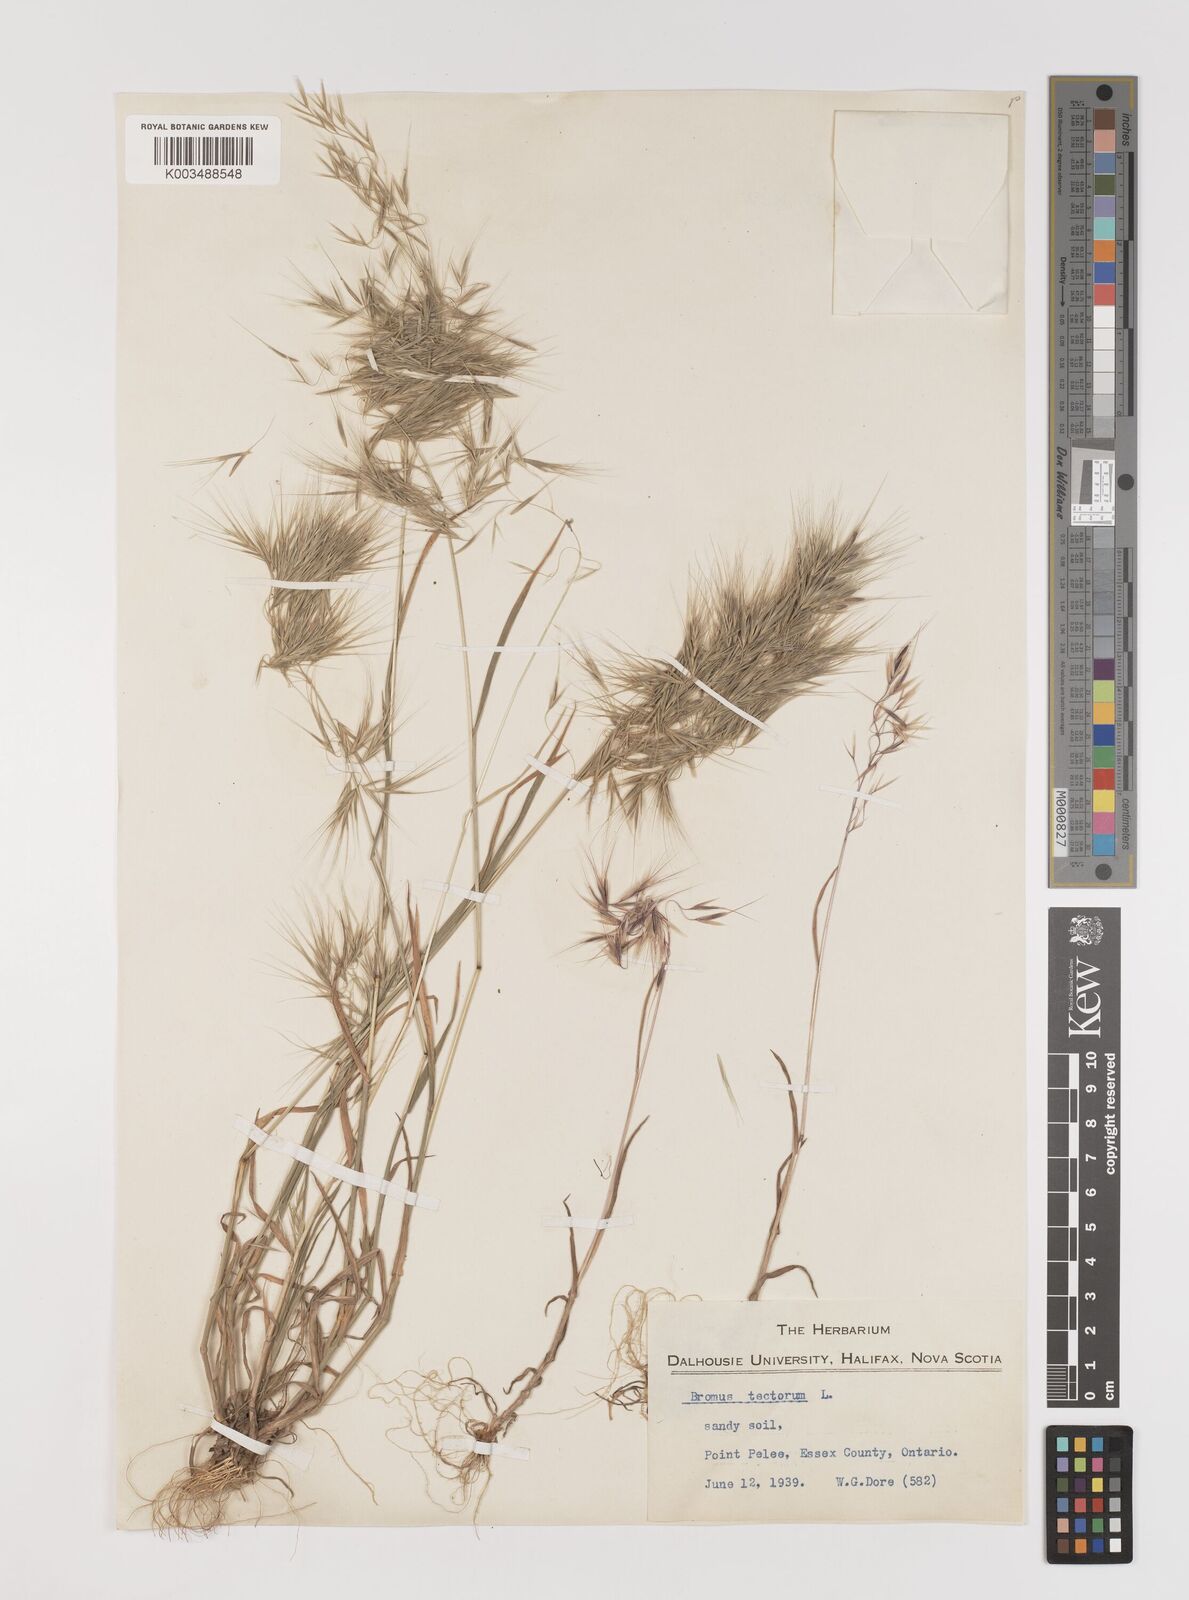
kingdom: Plantae
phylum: Tracheophyta
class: Liliopsida
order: Poales
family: Poaceae
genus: Bromus
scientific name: Bromus tectorum
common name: Cheatgrass
